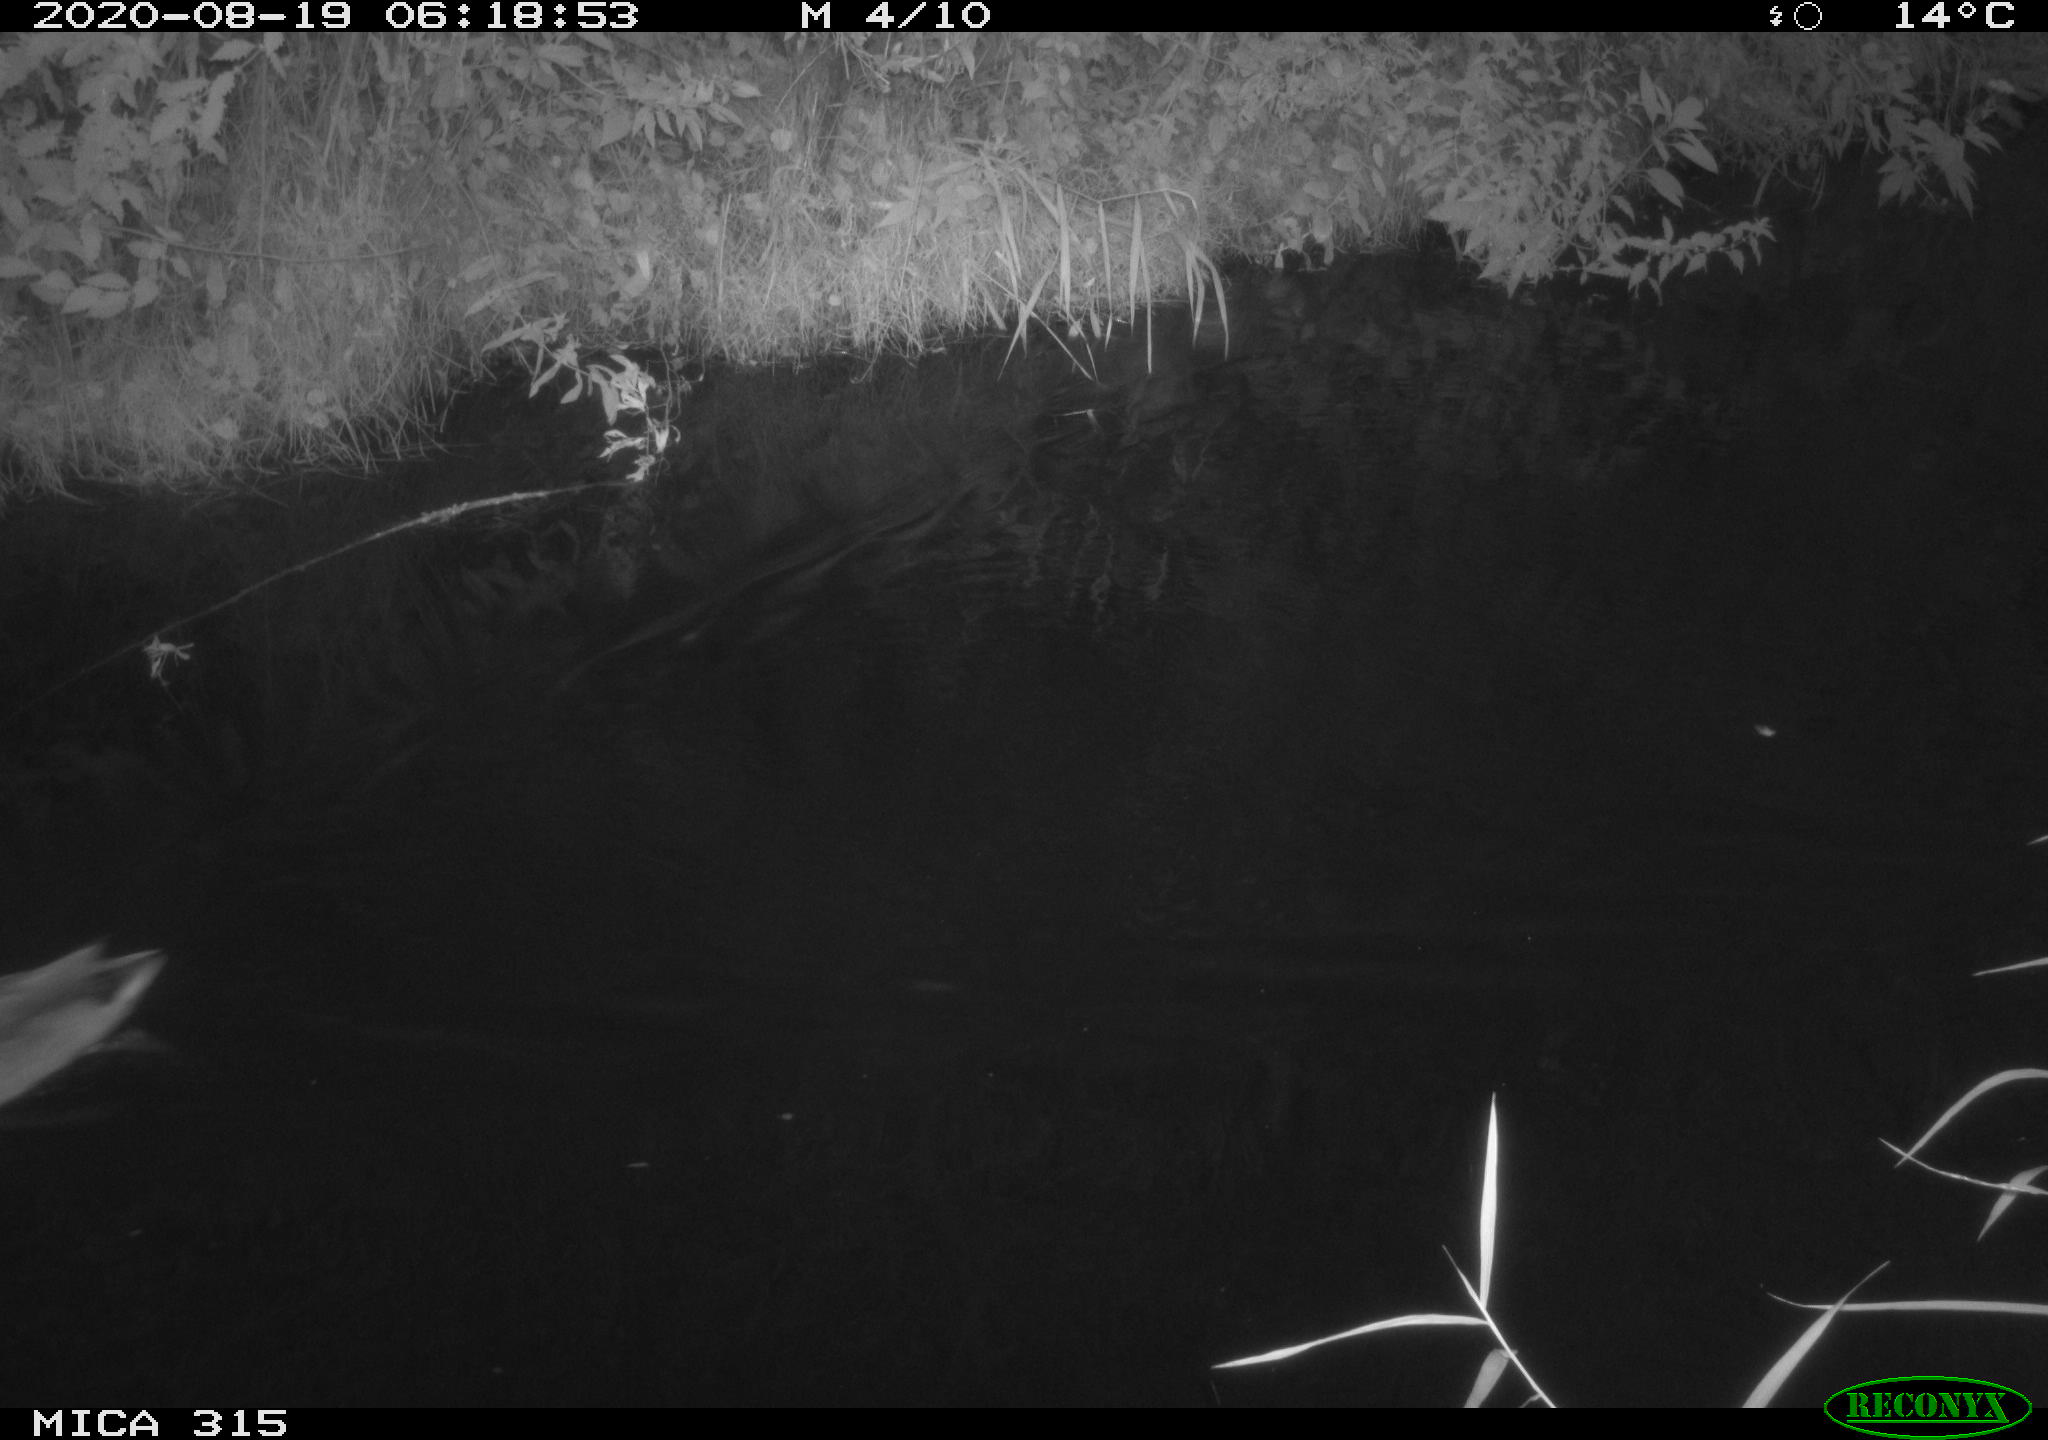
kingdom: Animalia
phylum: Chordata
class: Aves
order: Anseriformes
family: Anatidae
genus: Anas
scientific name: Anas platyrhynchos
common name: Mallard
